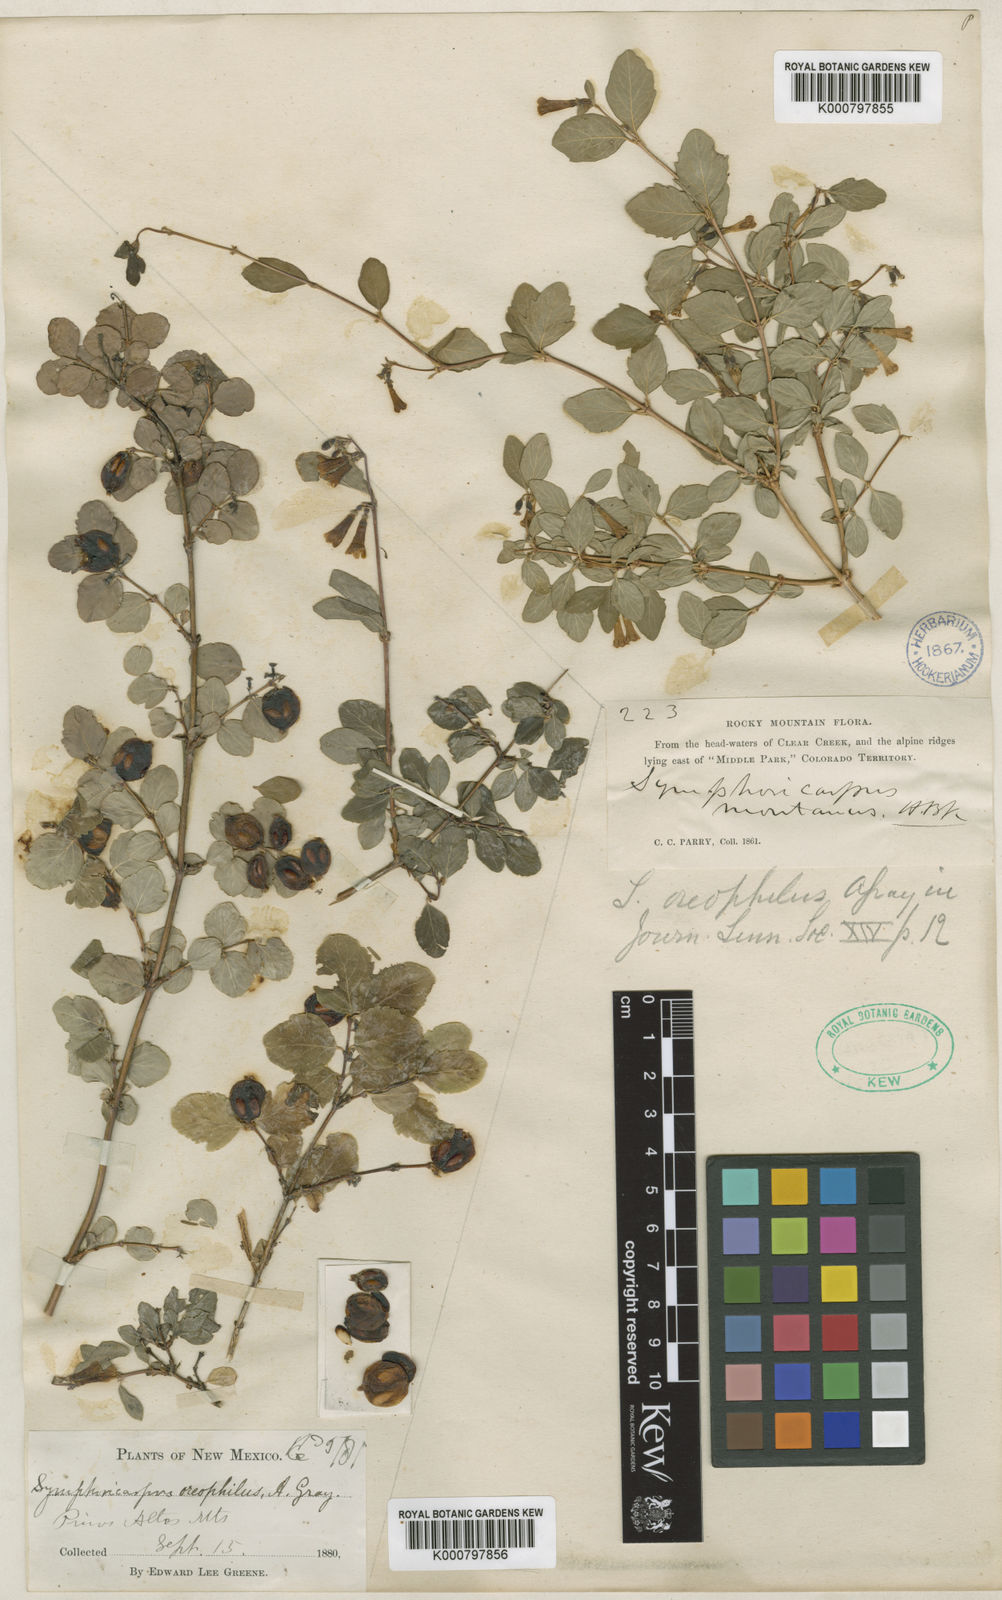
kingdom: Plantae
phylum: Tracheophyta
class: Magnoliopsida
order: Dipsacales
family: Caprifoliaceae
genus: Symphoricarpos
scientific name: Symphoricarpos oreophilus
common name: Mountain snowberry
